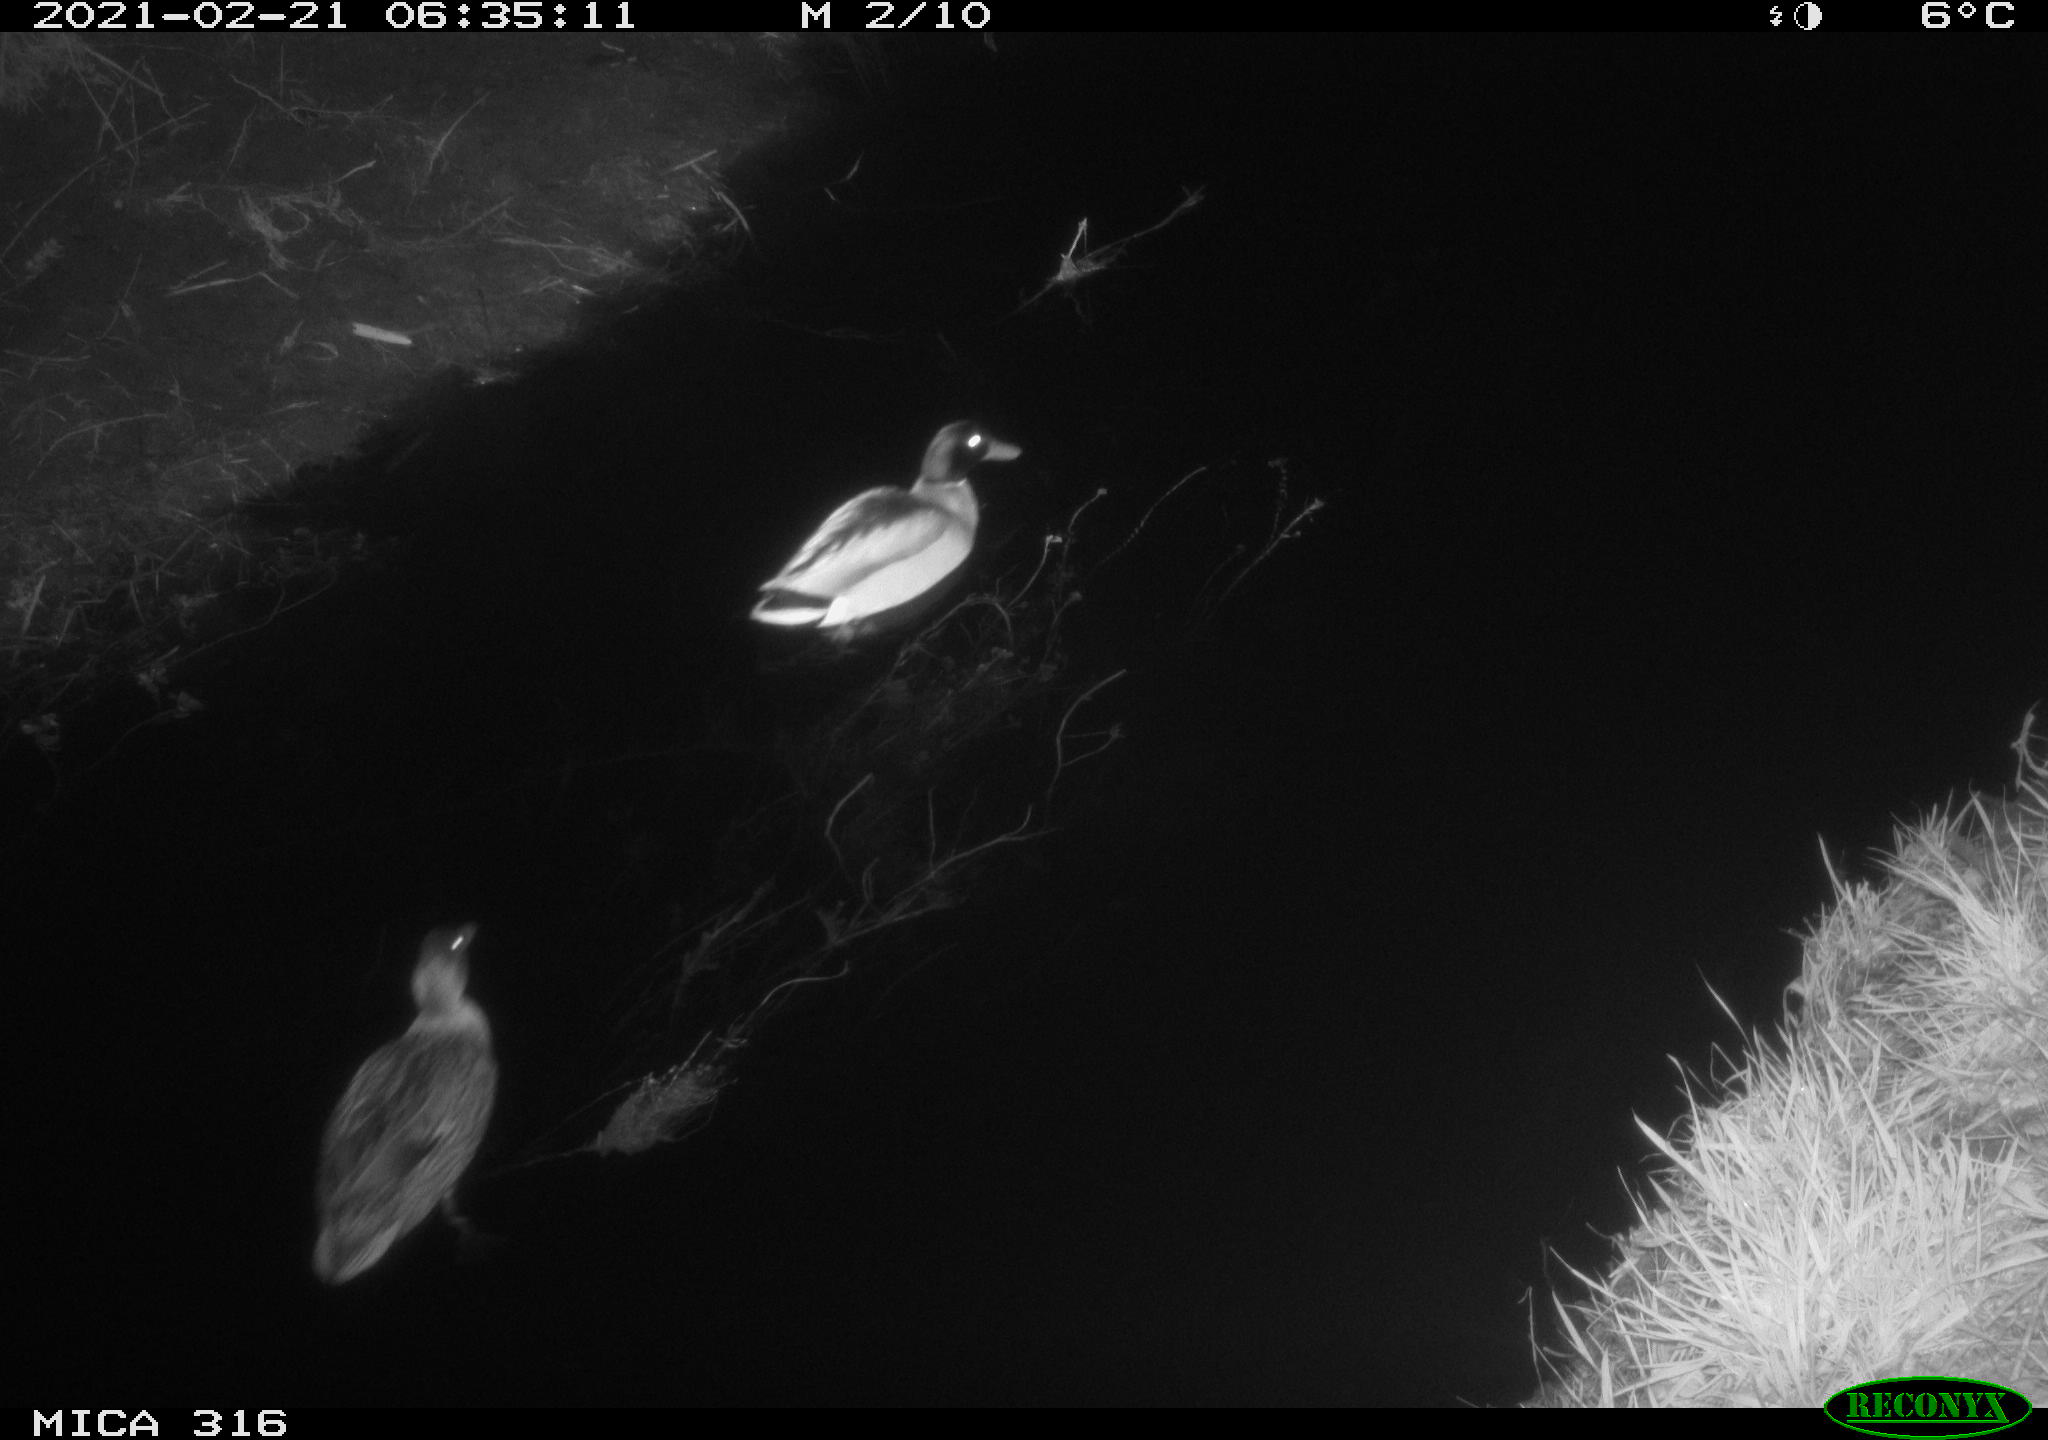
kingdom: Animalia
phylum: Chordata
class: Aves
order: Anseriformes
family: Anatidae
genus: Anas
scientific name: Anas platyrhynchos
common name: Mallard
